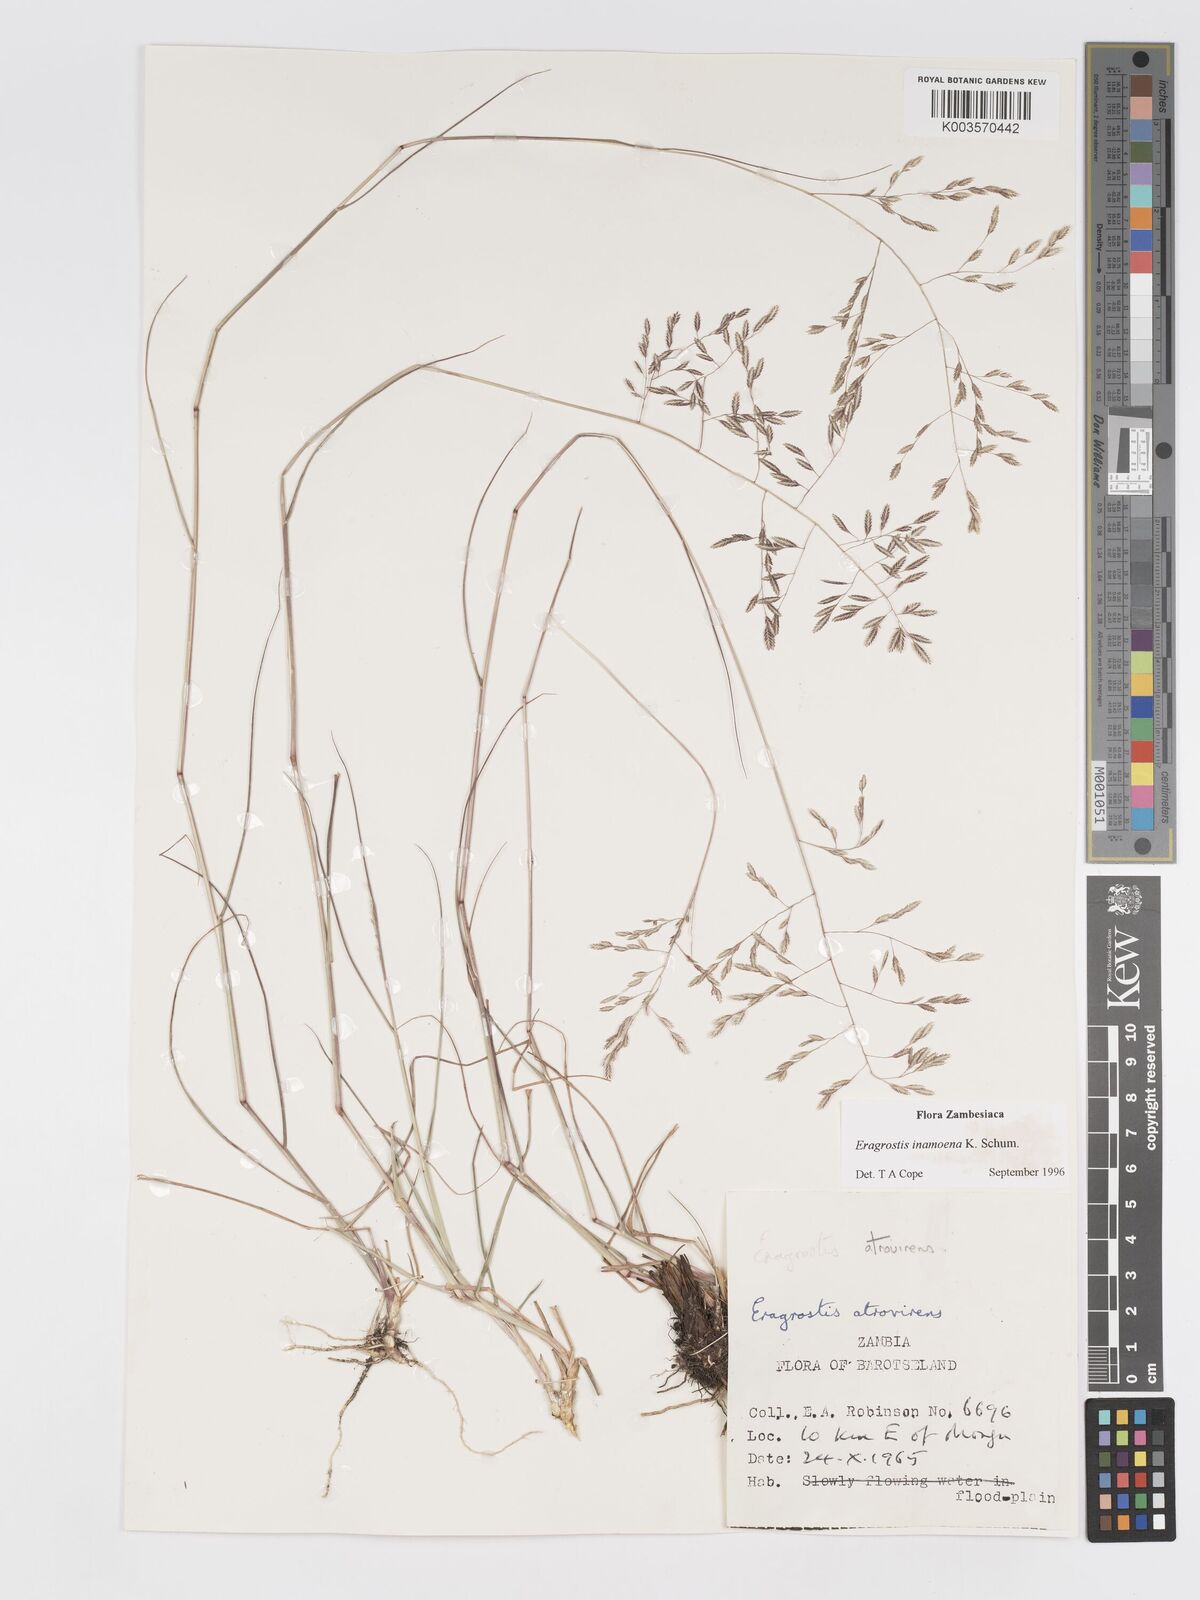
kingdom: Plantae
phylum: Tracheophyta
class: Liliopsida
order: Poales
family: Poaceae
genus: Eragrostis
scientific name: Eragrostis inamoena
